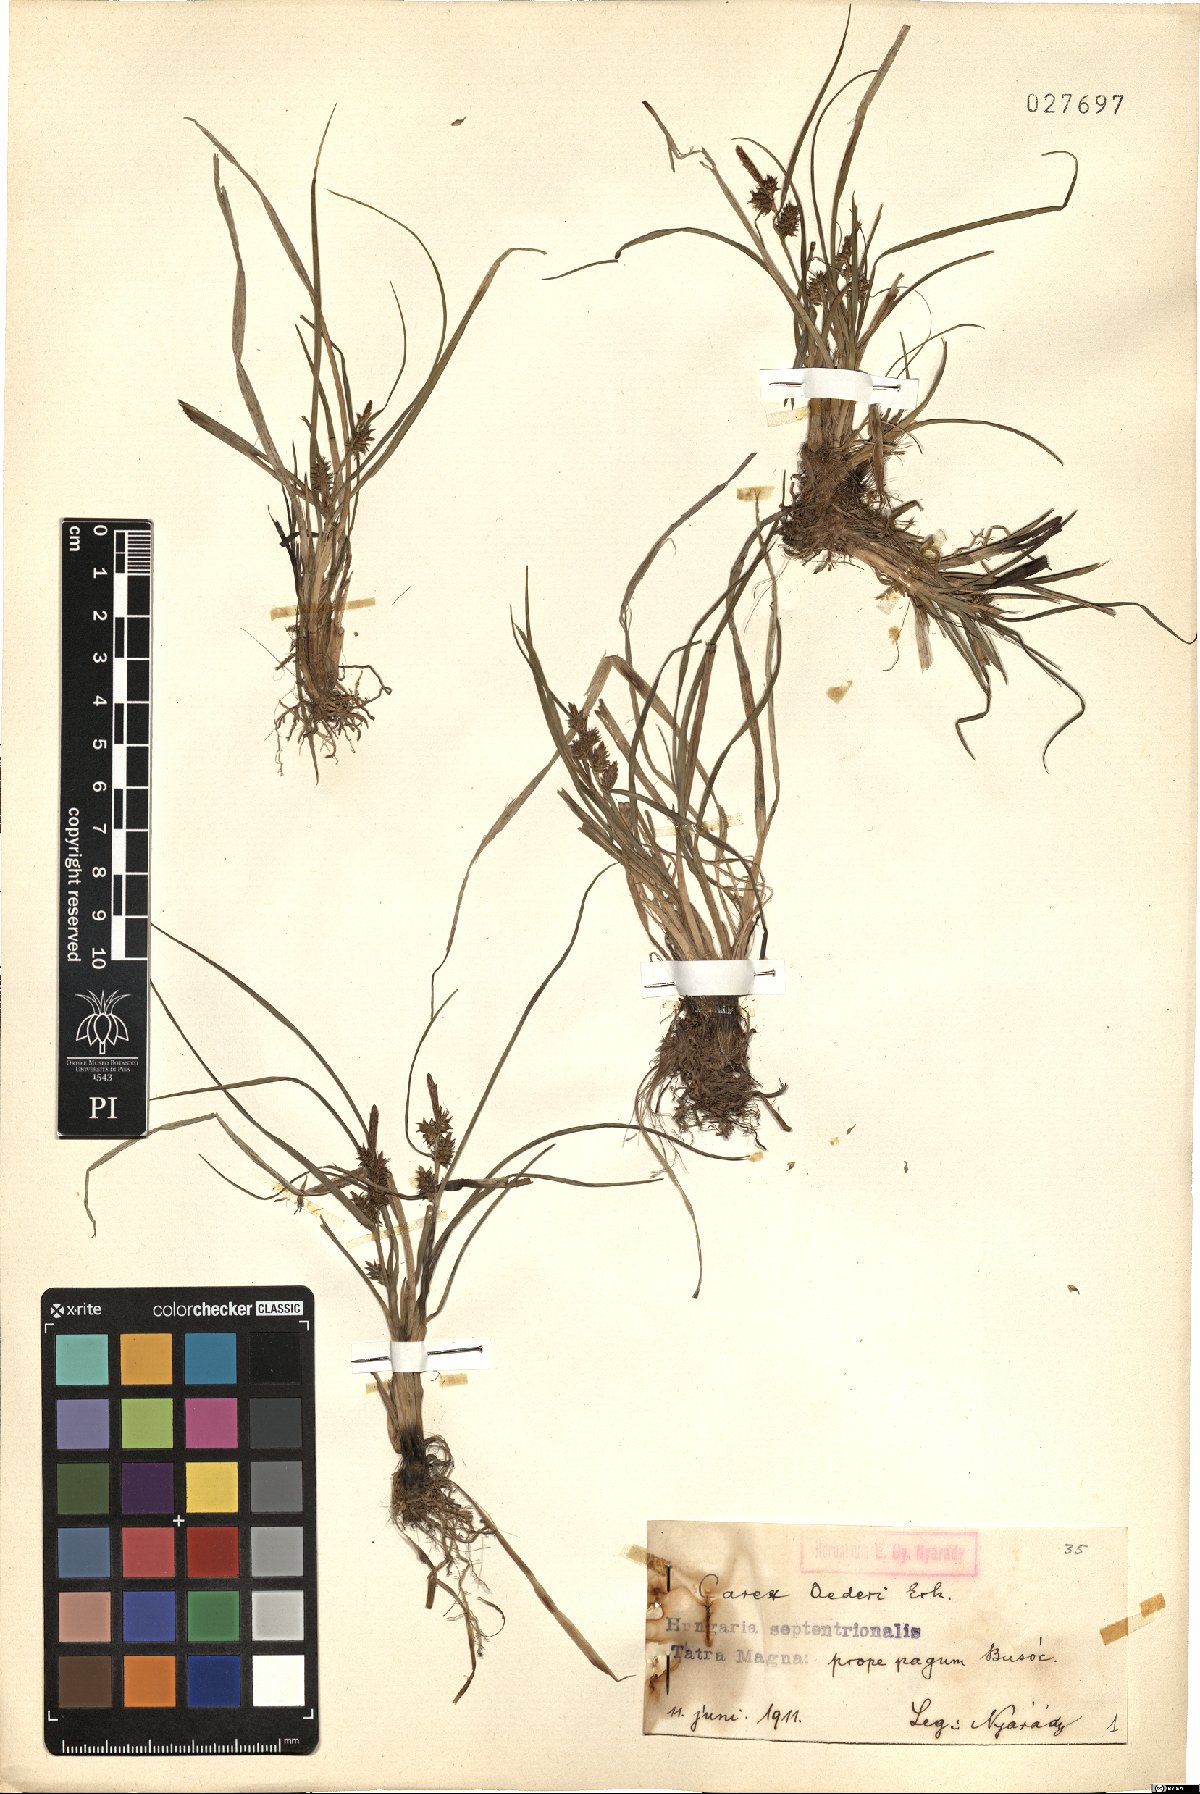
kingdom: Plantae
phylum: Tracheophyta
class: Liliopsida
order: Poales
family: Cyperaceae
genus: Carex
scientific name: Carex oederi
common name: Common & small-fruited yellow-sedge
